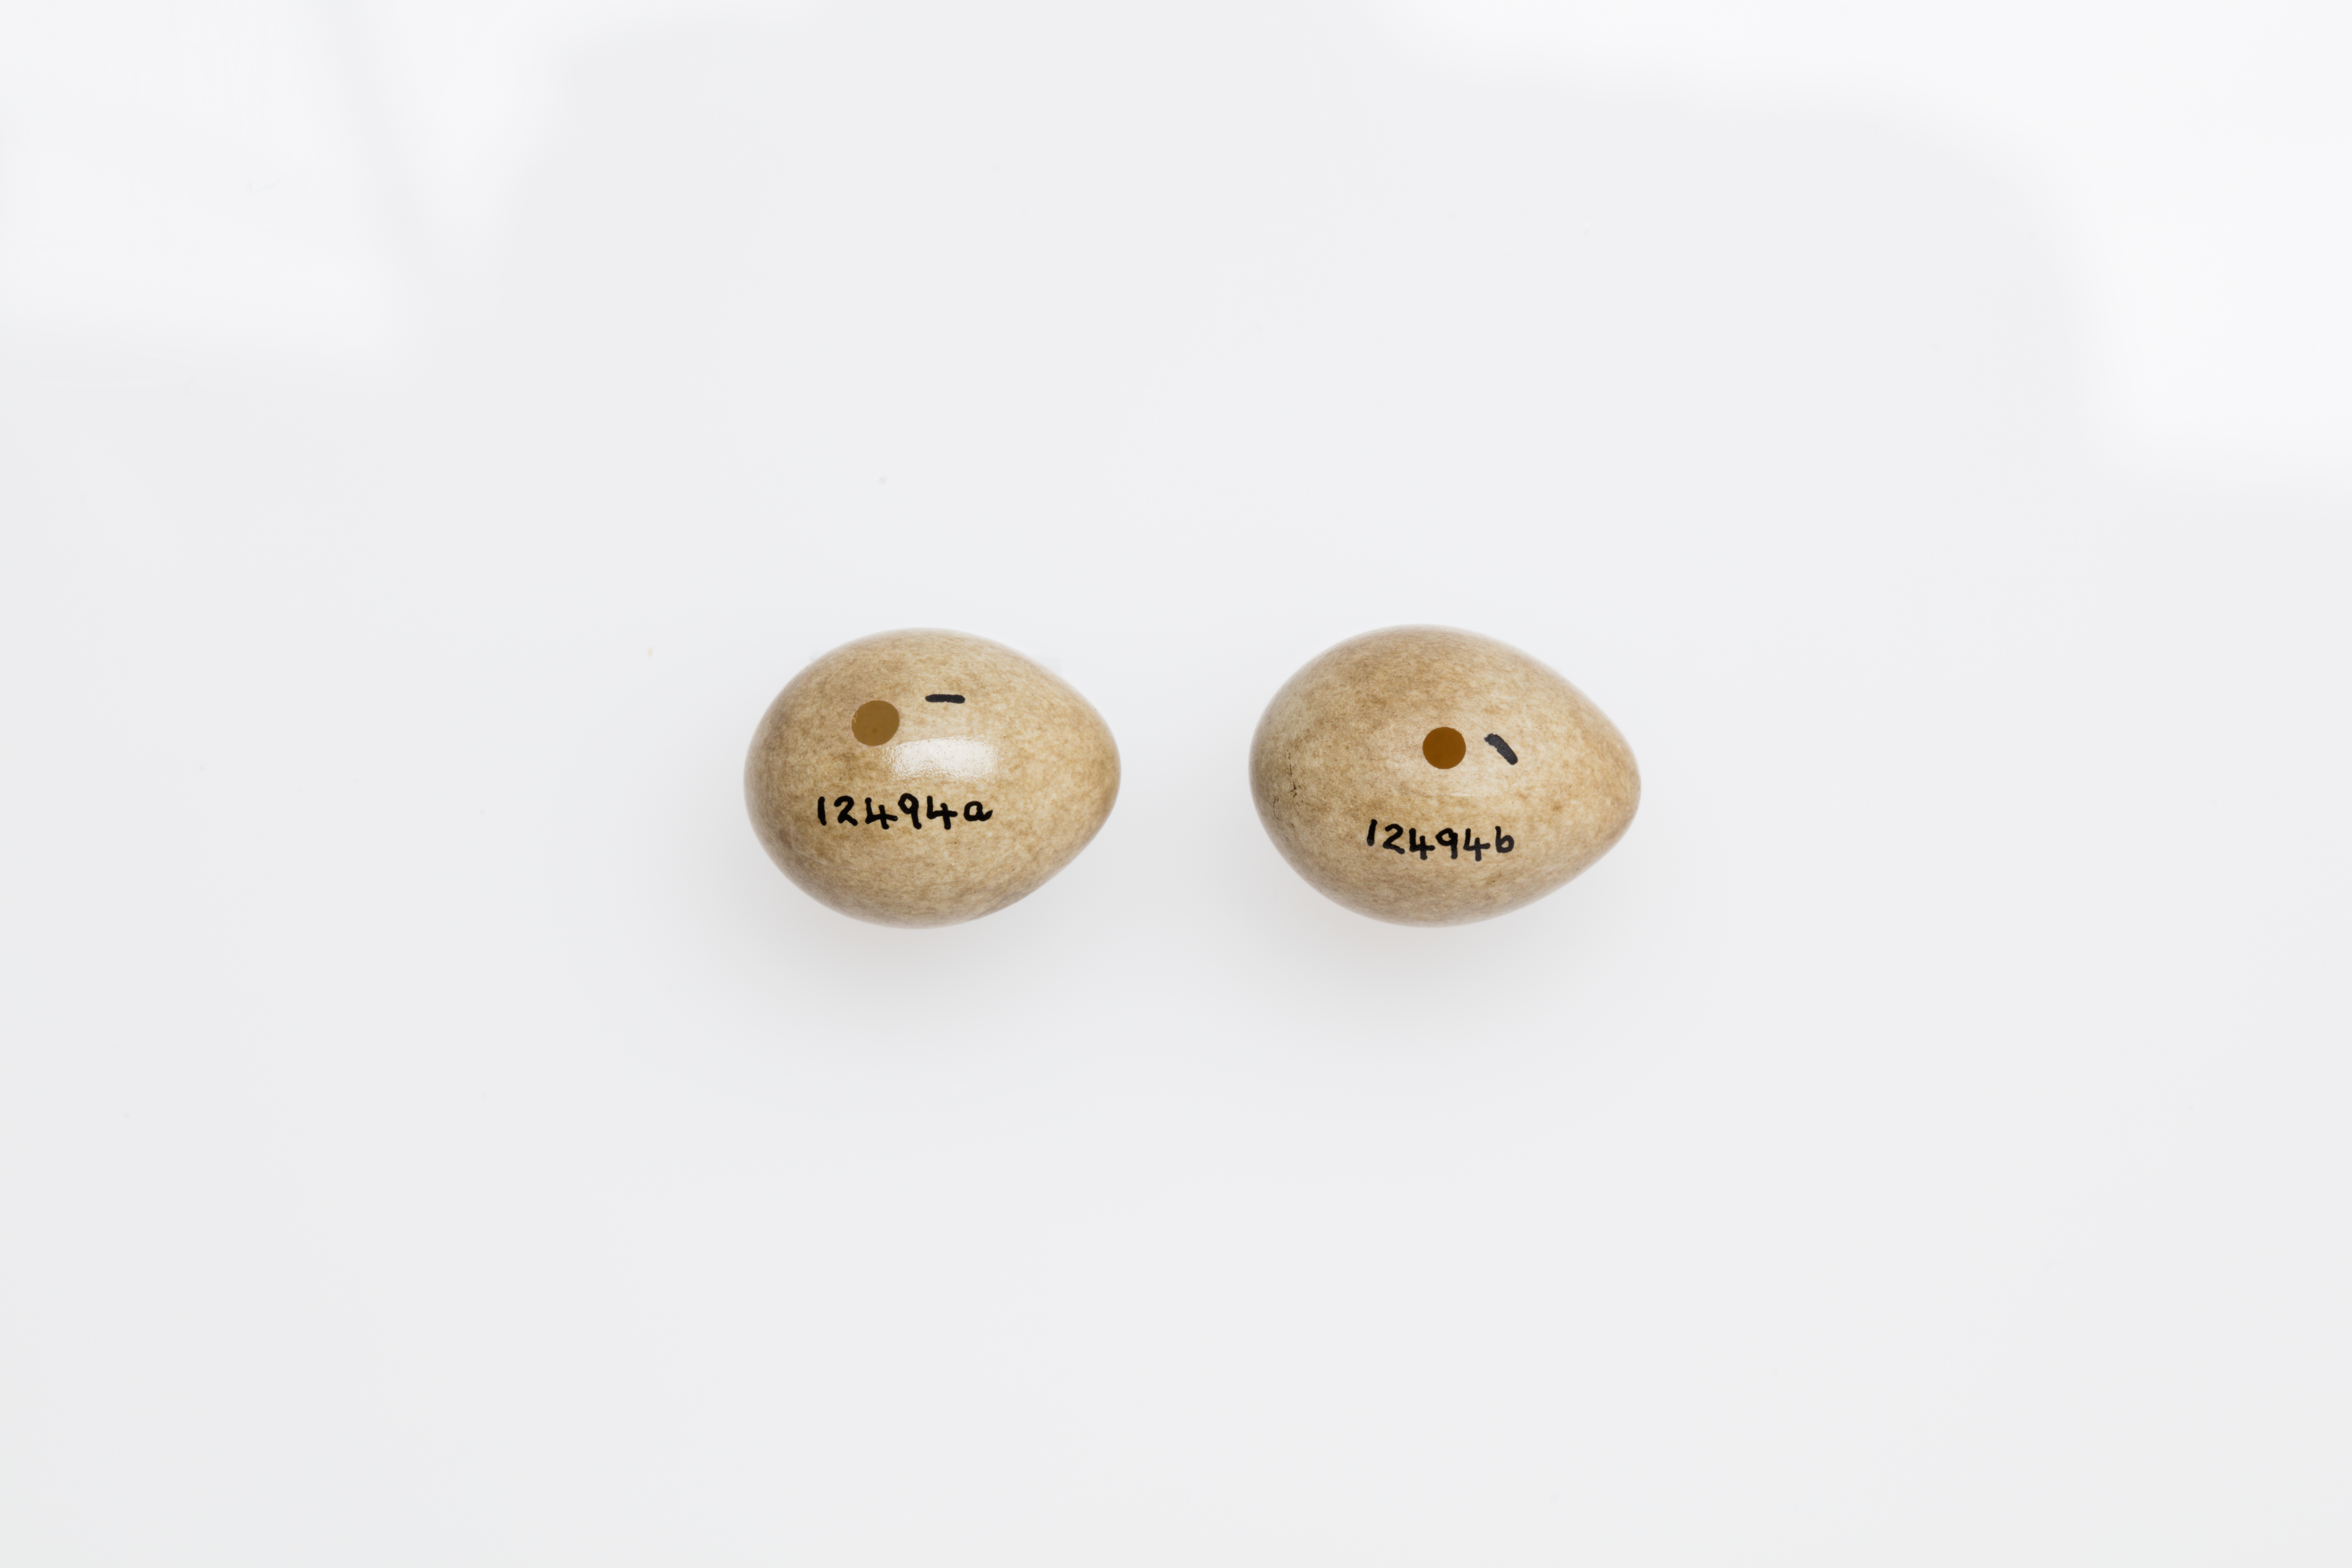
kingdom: Animalia
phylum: Chordata
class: Aves
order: Passeriformes
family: Motacillidae
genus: Motacilla
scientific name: Motacilla cinerea
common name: Grey wagtail
